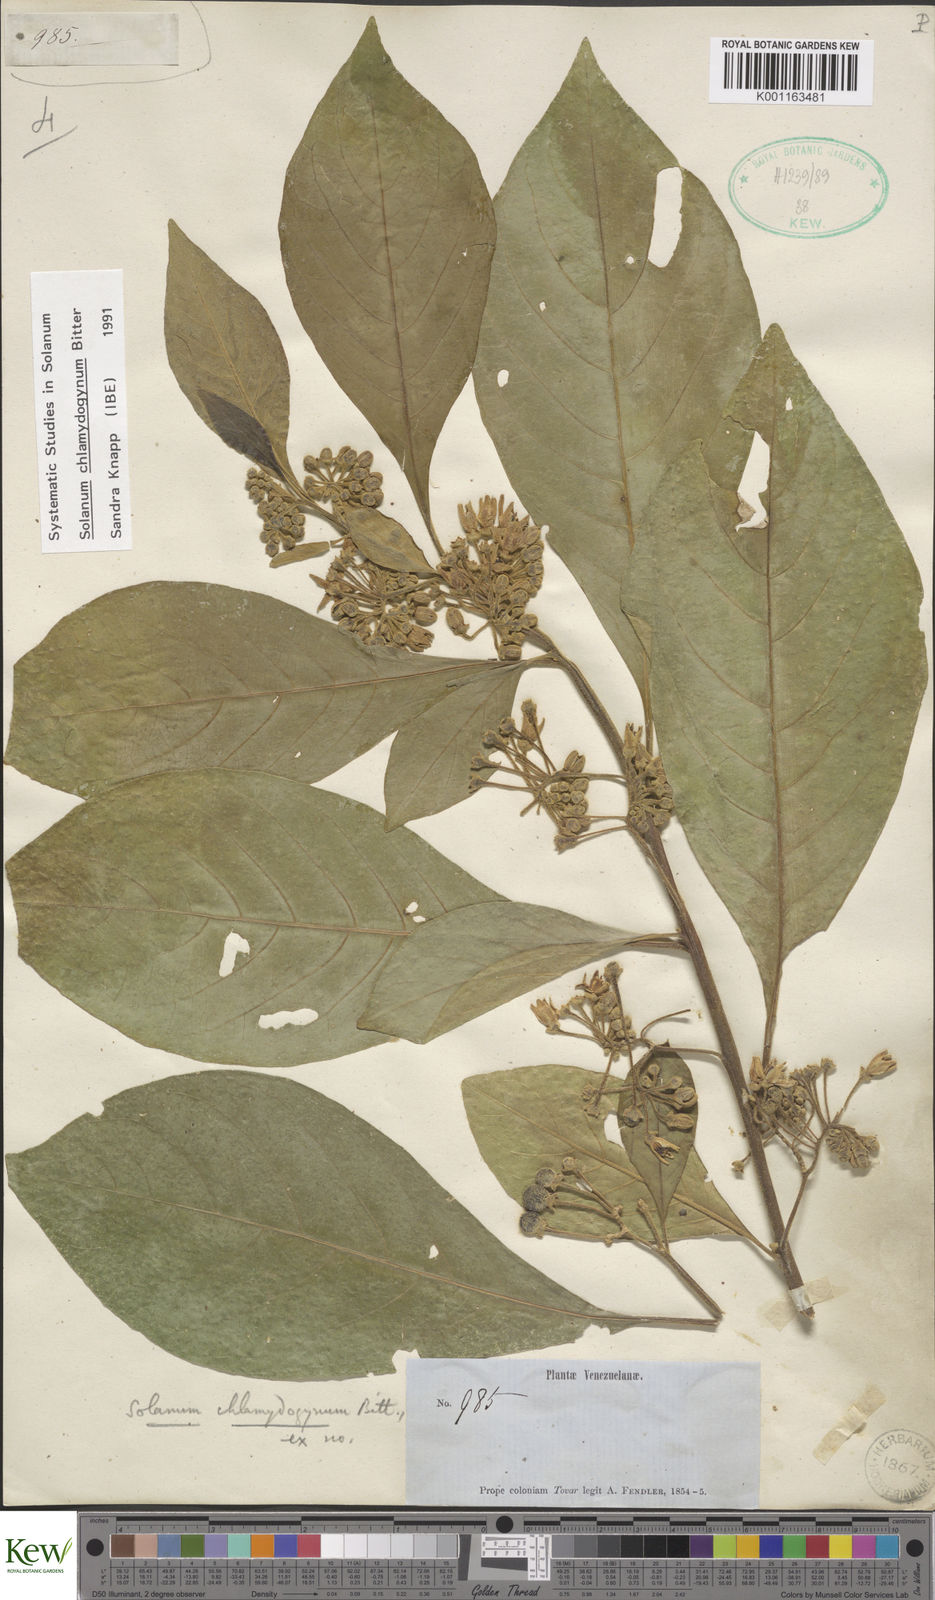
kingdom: Plantae
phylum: Tracheophyta
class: Magnoliopsida
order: Solanales
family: Solanaceae
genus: Solanum
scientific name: Solanum chlamydogynum
